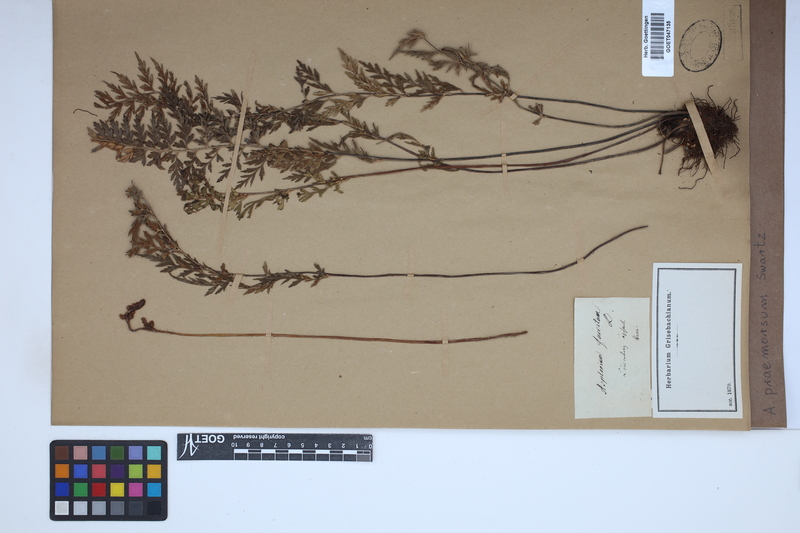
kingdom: Plantae
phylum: Tracheophyta
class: Polypodiopsida
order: Polypodiales
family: Aspleniaceae
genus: Asplenium
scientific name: Asplenium praemorsum
